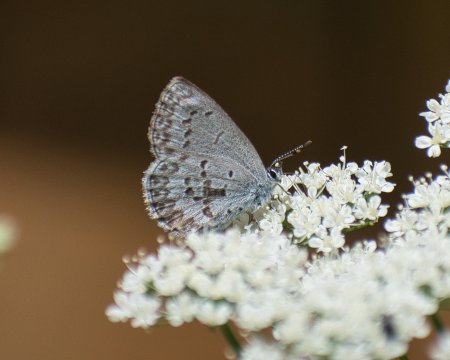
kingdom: Animalia
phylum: Arthropoda
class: Insecta
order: Lepidoptera
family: Lycaenidae
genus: Celastrina
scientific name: Celastrina
